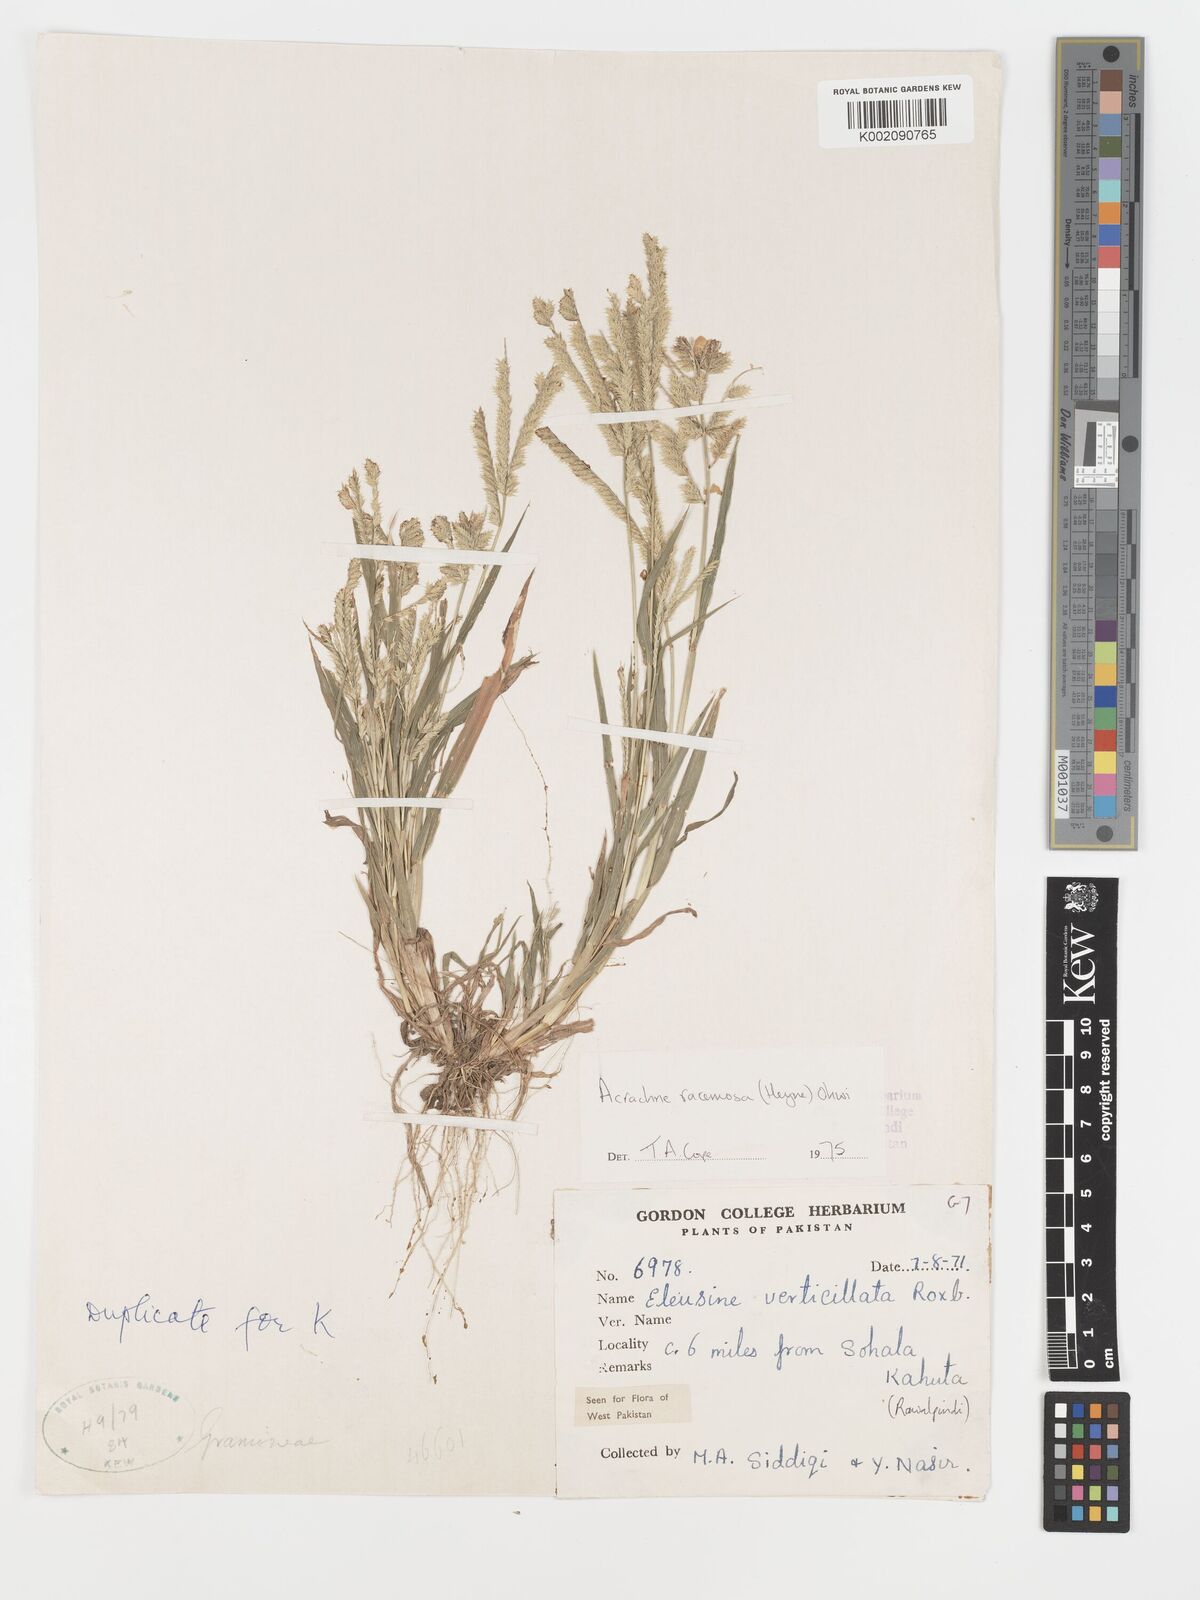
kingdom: Plantae
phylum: Tracheophyta
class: Liliopsida
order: Poales
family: Poaceae
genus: Acrachne
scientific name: Acrachne racemosa
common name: Goosegrass
